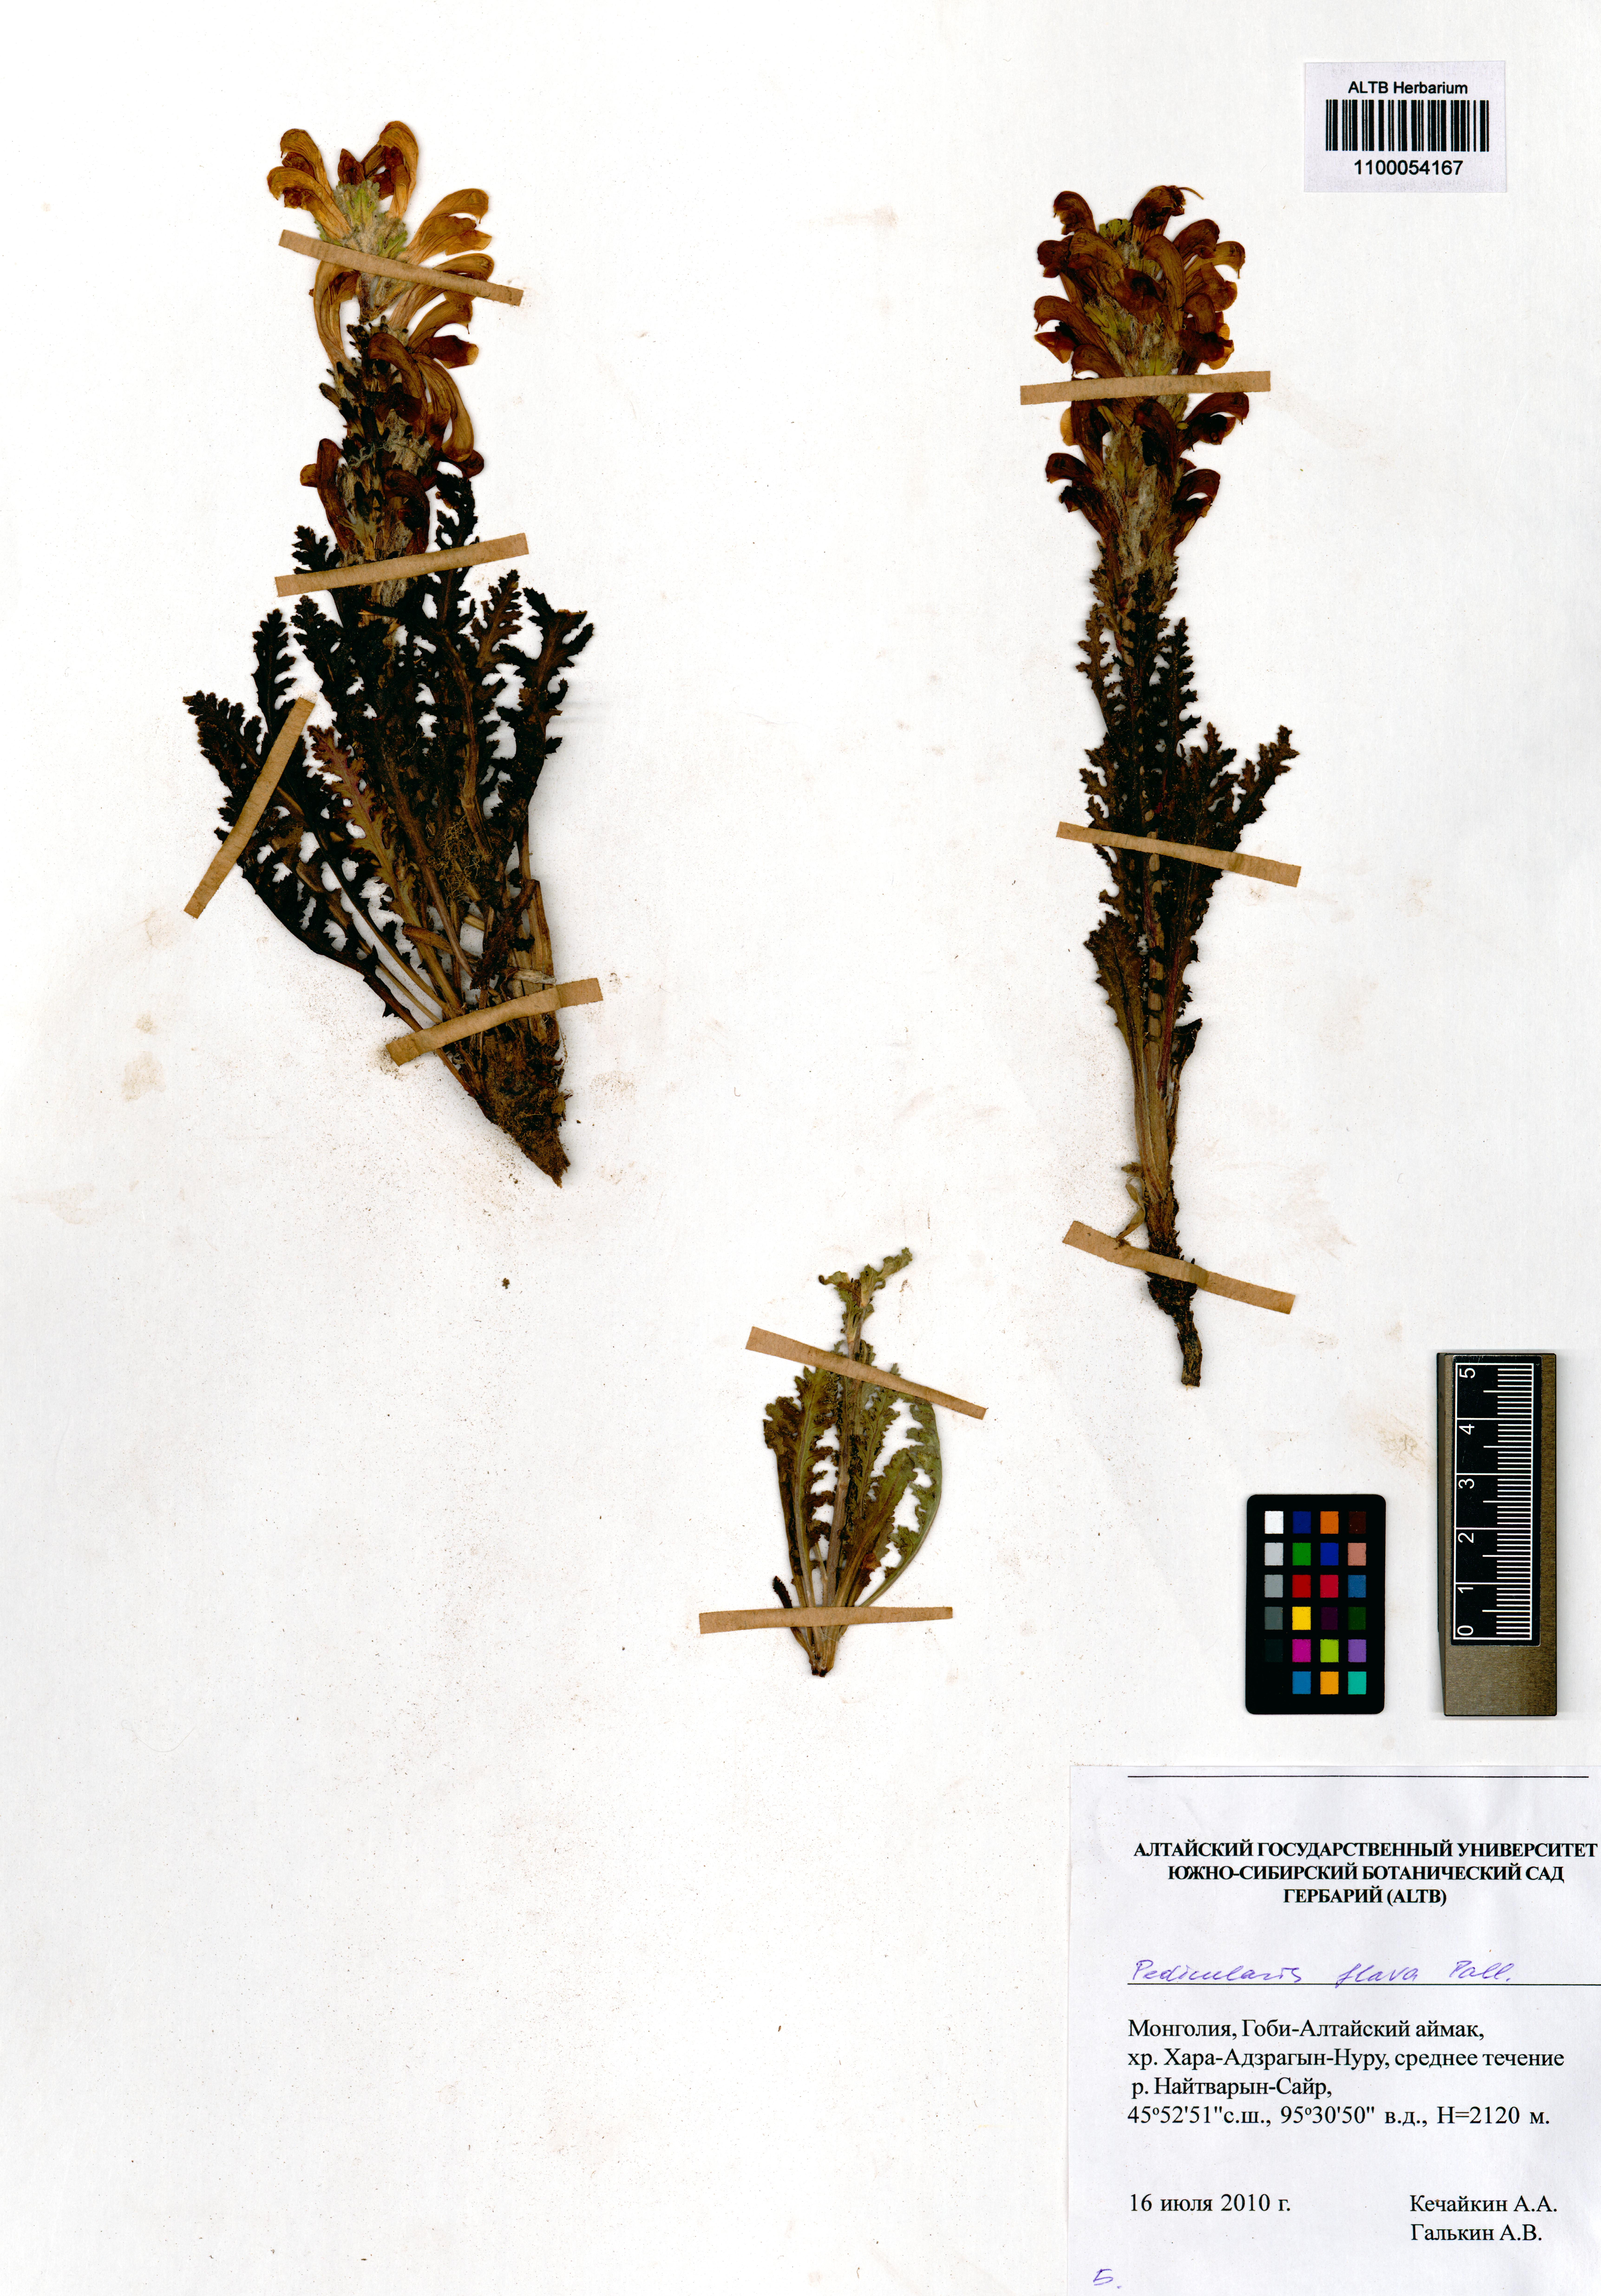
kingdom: Plantae
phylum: Tracheophyta
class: Magnoliopsida
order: Lamiales
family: Orobanchaceae
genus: Pedicularis
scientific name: Pedicularis flava
